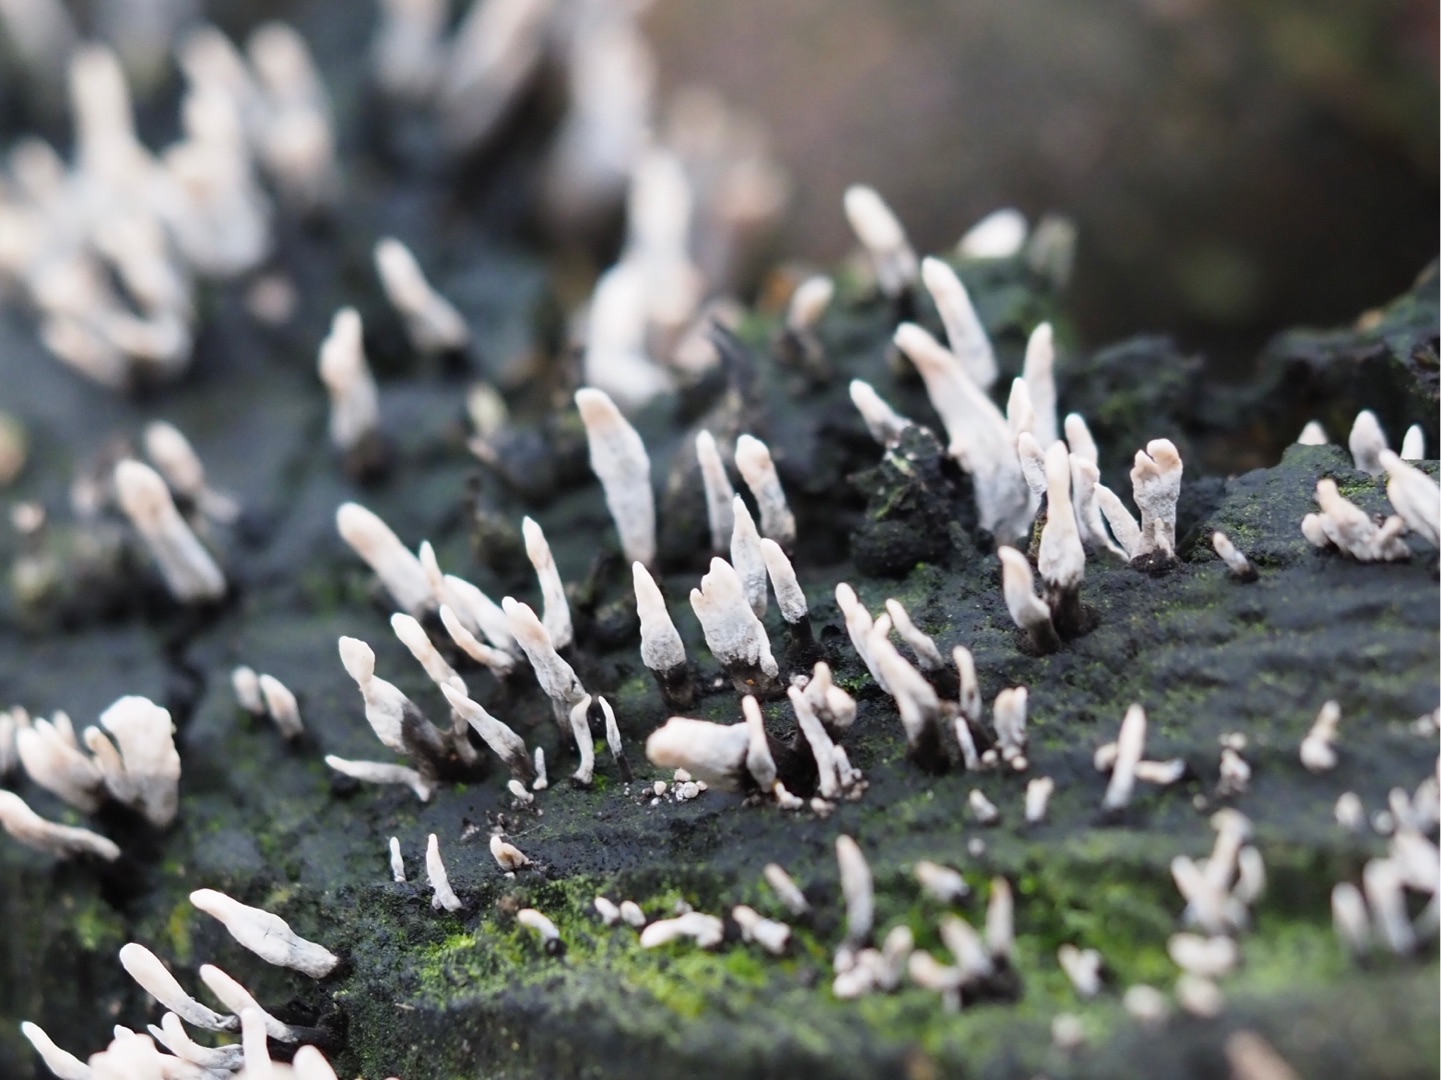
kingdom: Fungi
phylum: Ascomycota
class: Sordariomycetes
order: Xylariales
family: Xylariaceae
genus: Xylaria
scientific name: Xylaria hypoxylon
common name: Grenet stødsvamp
